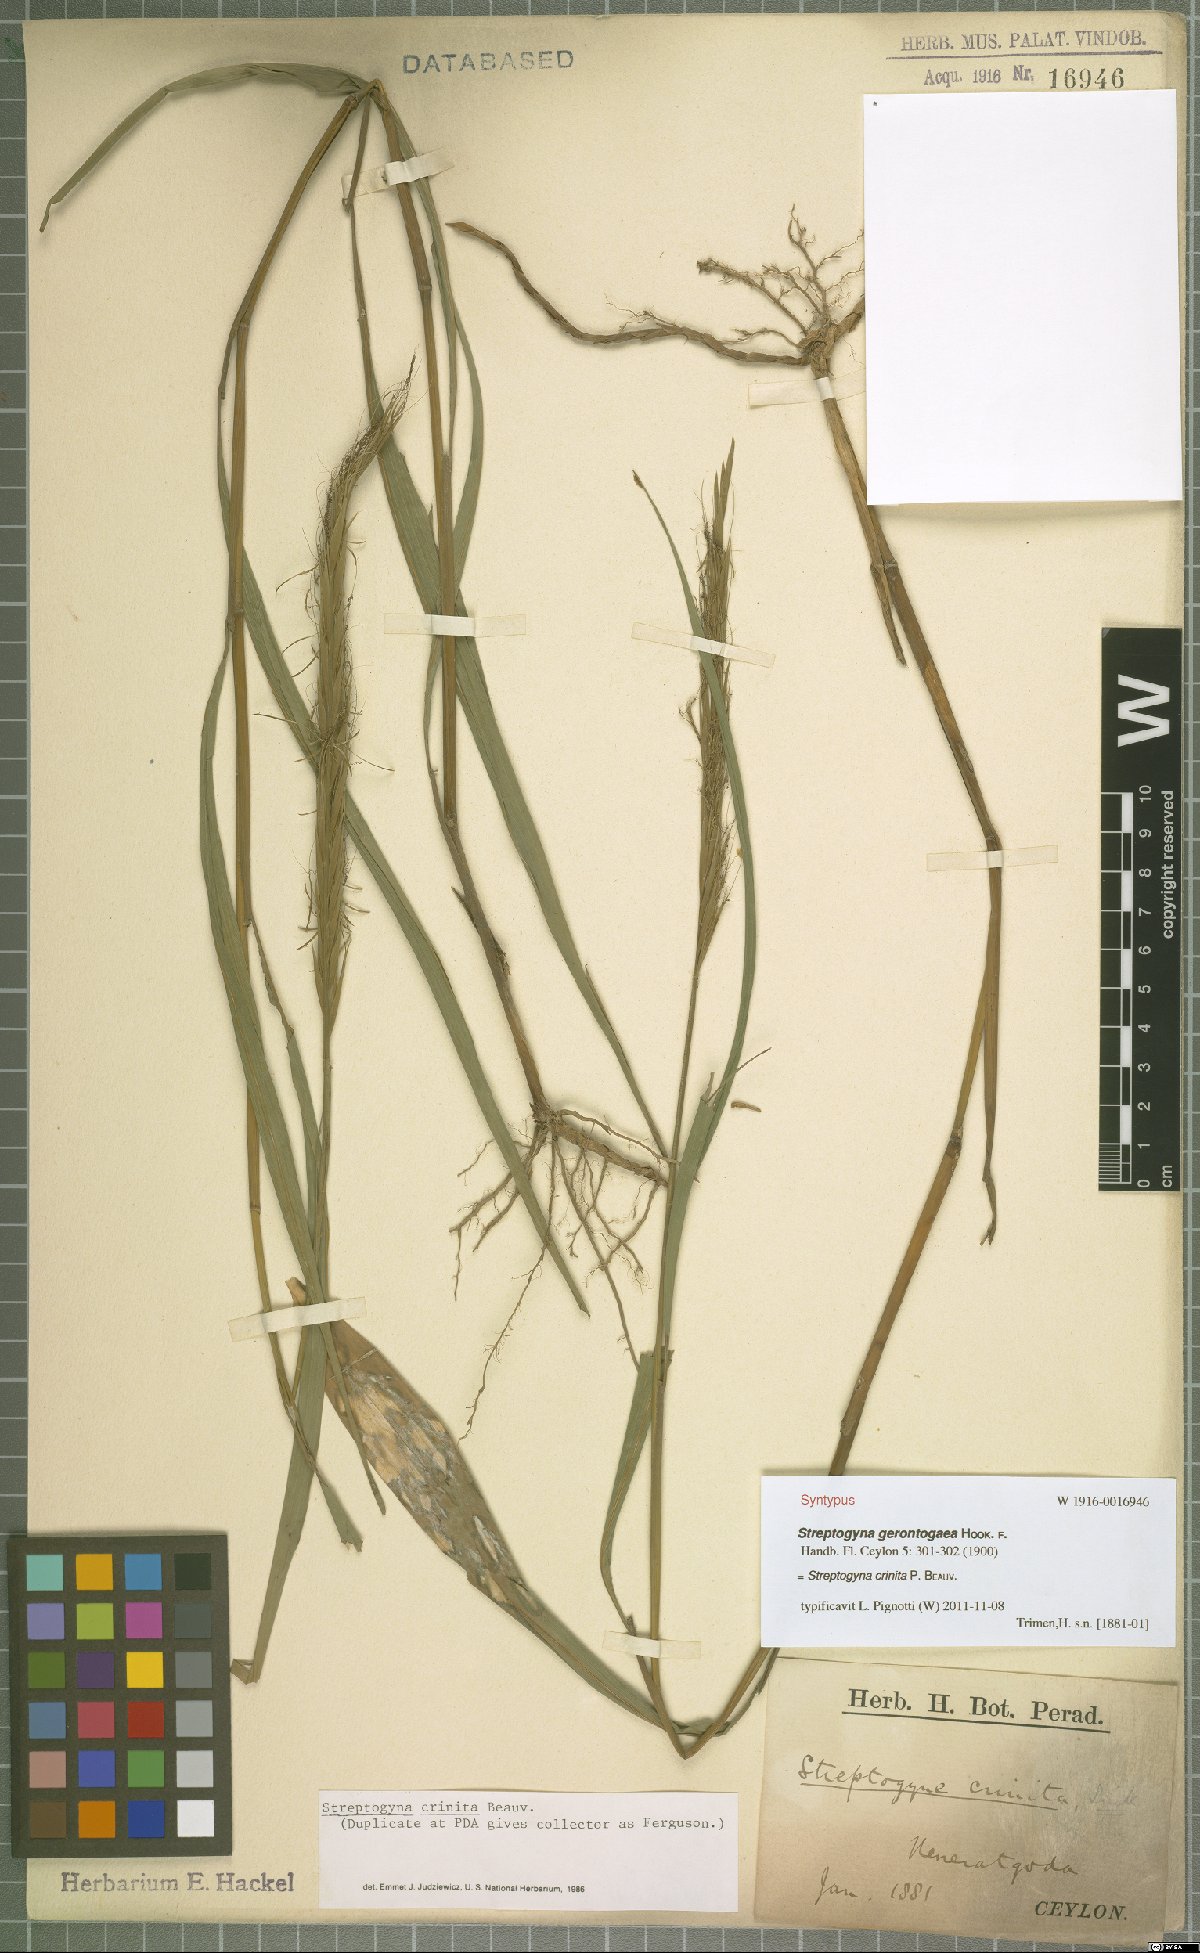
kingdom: Plantae
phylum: Tracheophyta
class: Liliopsida
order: Poales
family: Poaceae
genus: Streptogyna
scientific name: Streptogyna crinita
